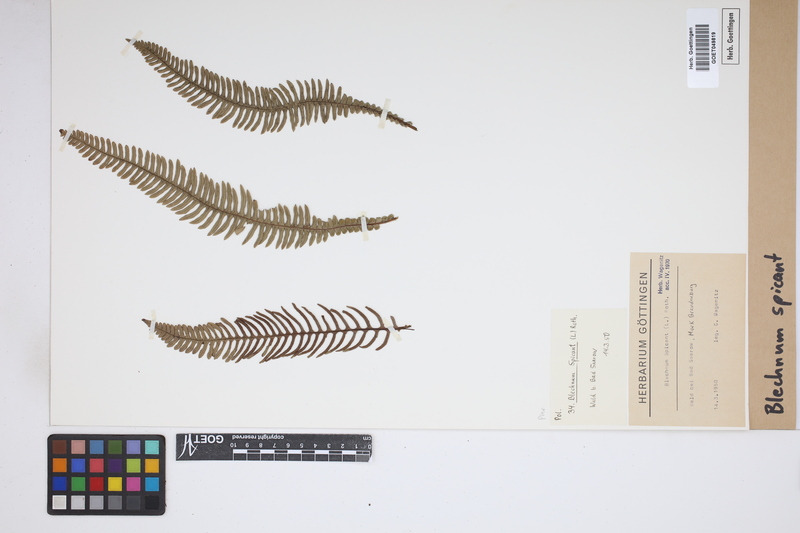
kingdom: Plantae
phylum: Tracheophyta
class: Polypodiopsida
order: Polypodiales
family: Blechnaceae
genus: Struthiopteris
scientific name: Struthiopteris spicant
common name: Deer fern
